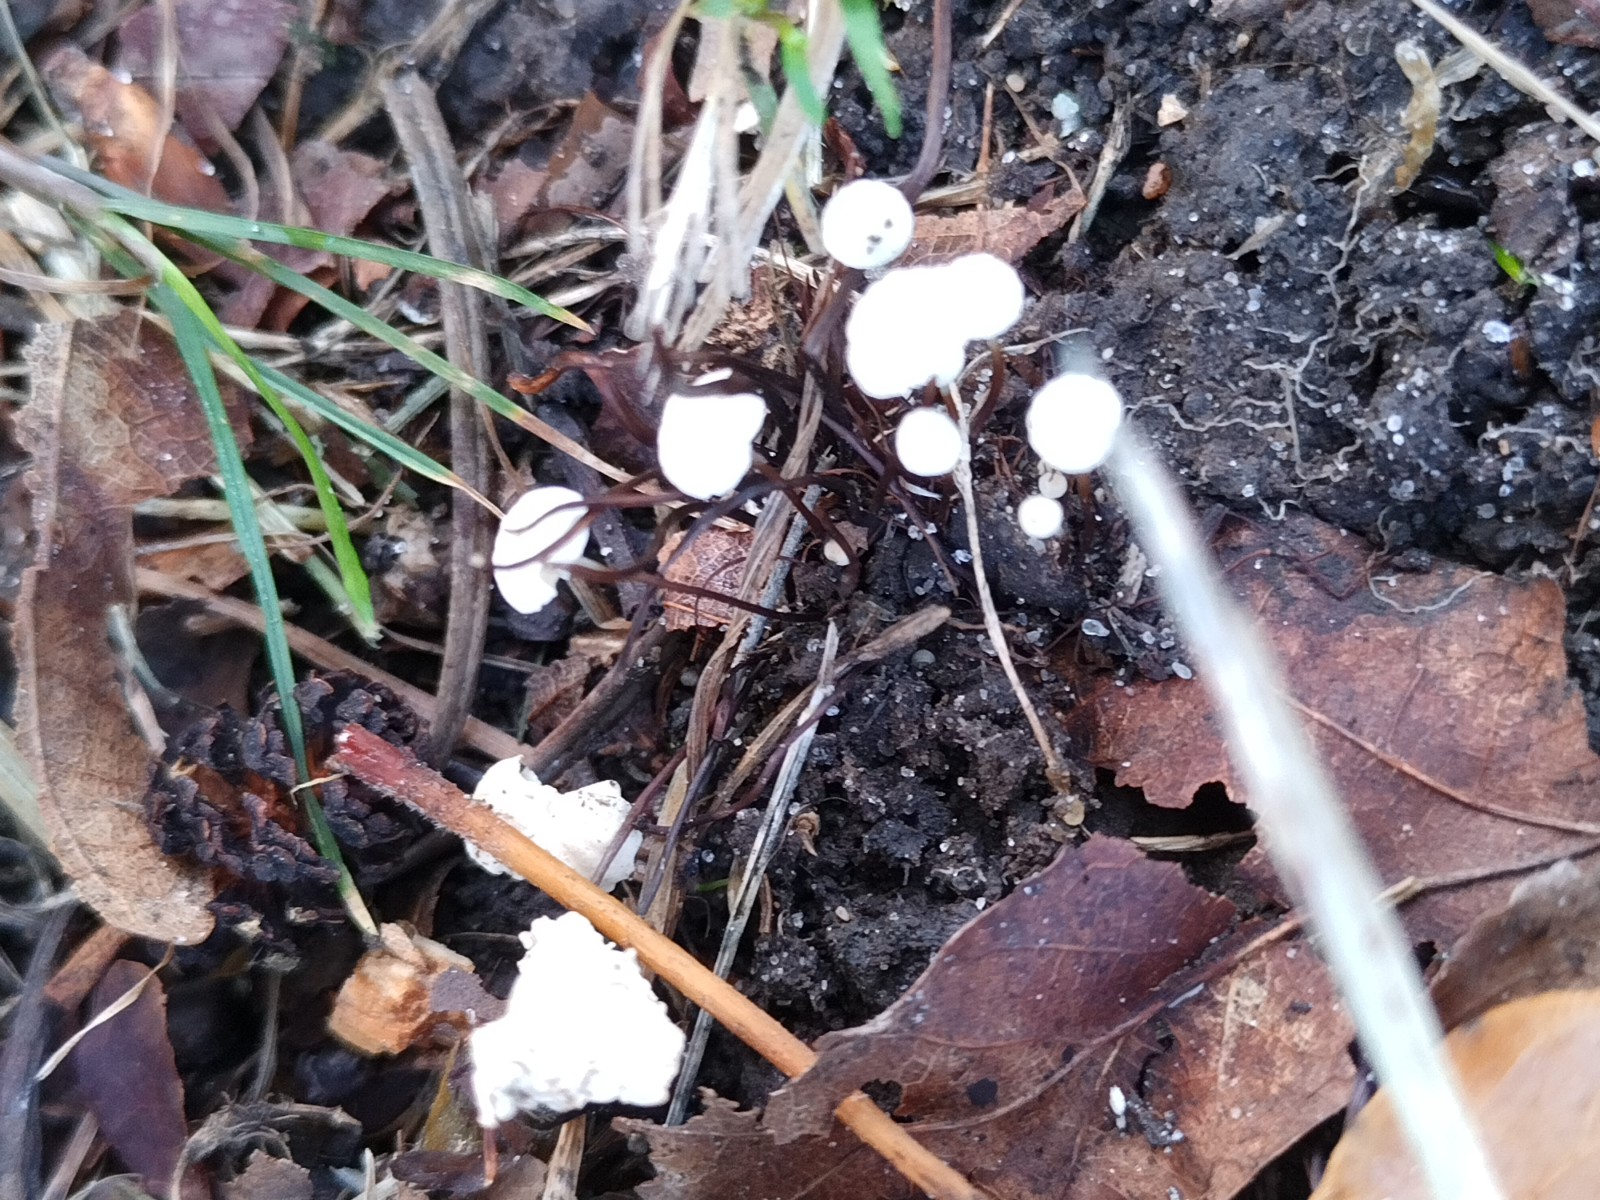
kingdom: Fungi
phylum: Basidiomycota
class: Agaricomycetes
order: Agaricales
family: Marasmiaceae
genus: Marasmius
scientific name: Marasmius rotula
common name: hjul-bruskhat
